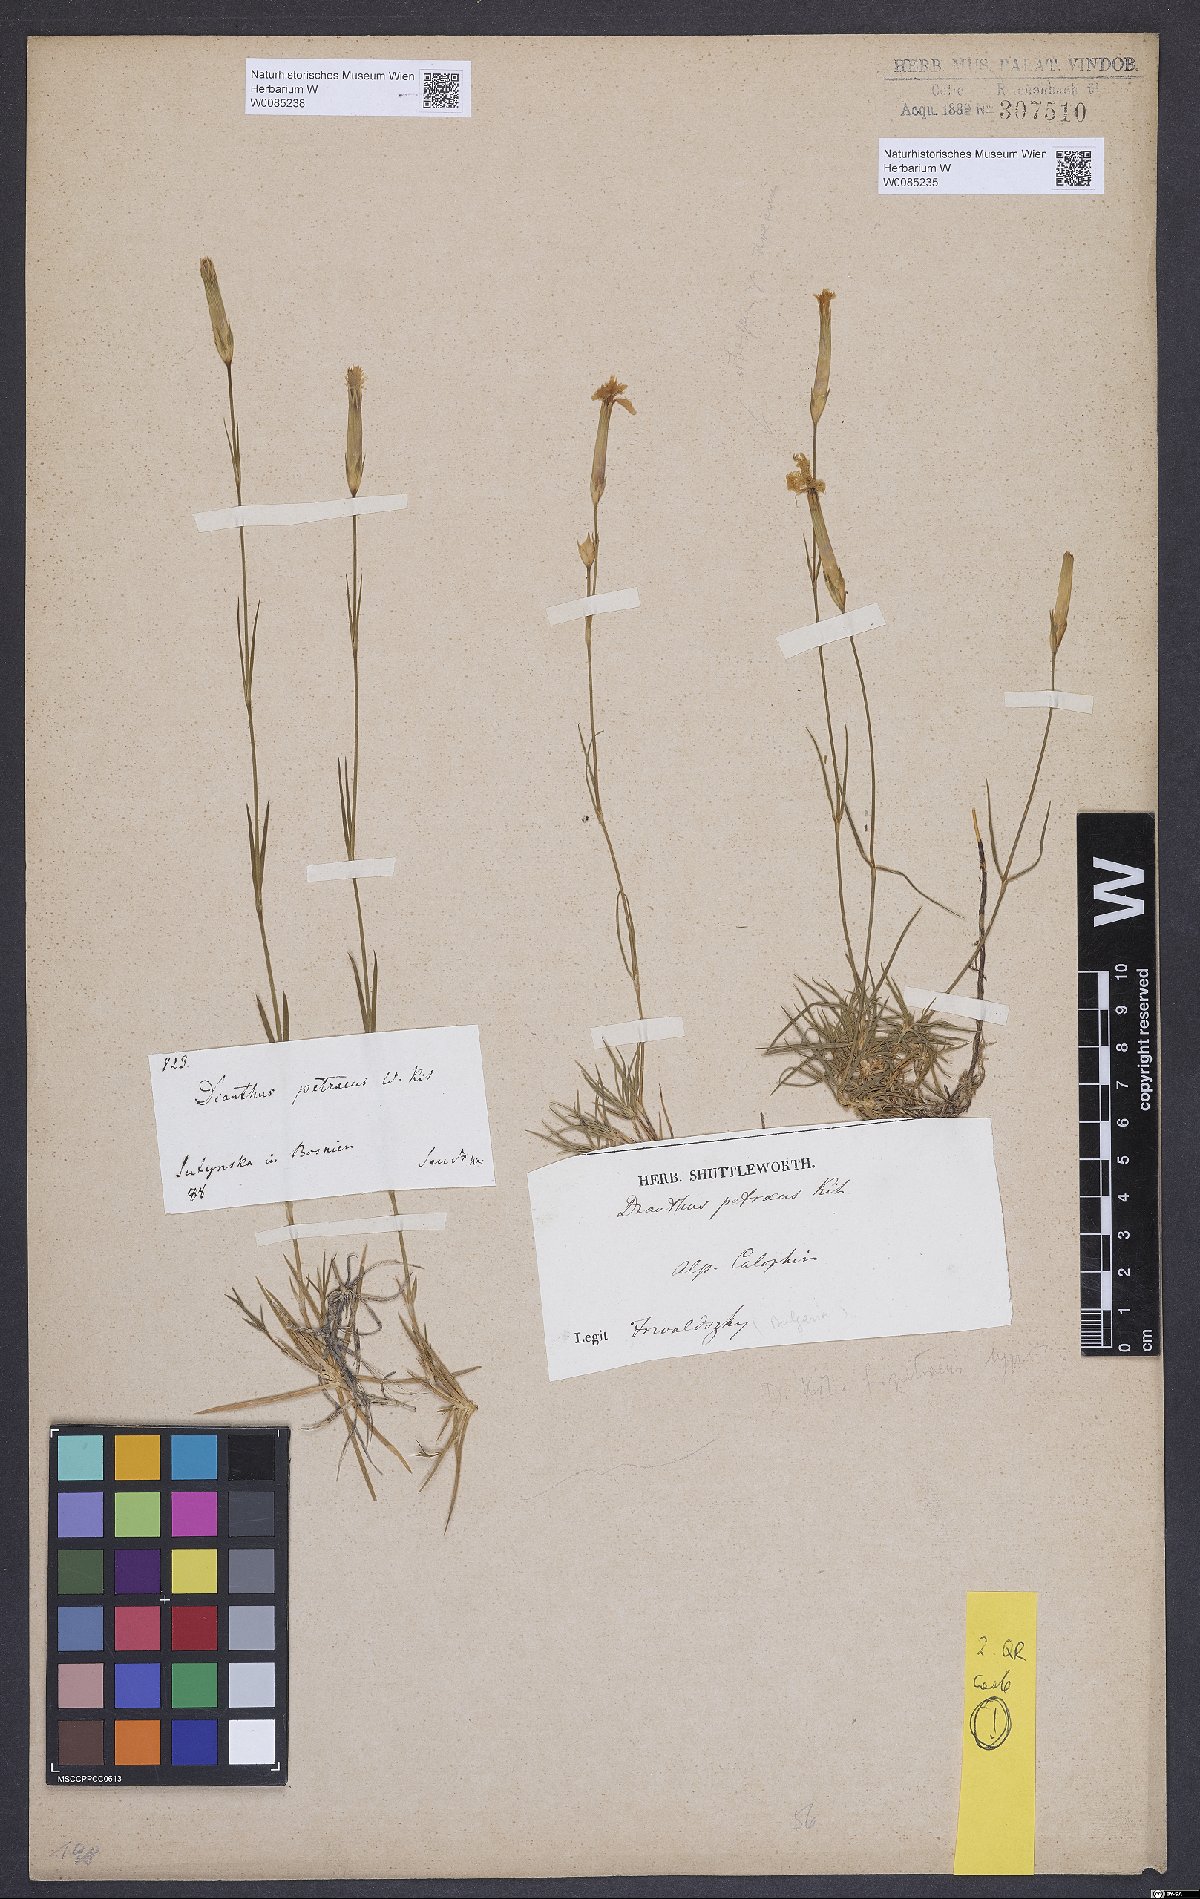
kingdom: Plantae
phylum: Tracheophyta
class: Magnoliopsida
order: Caryophyllales
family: Caryophyllaceae
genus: Dianthus
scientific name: Dianthus petraeus
